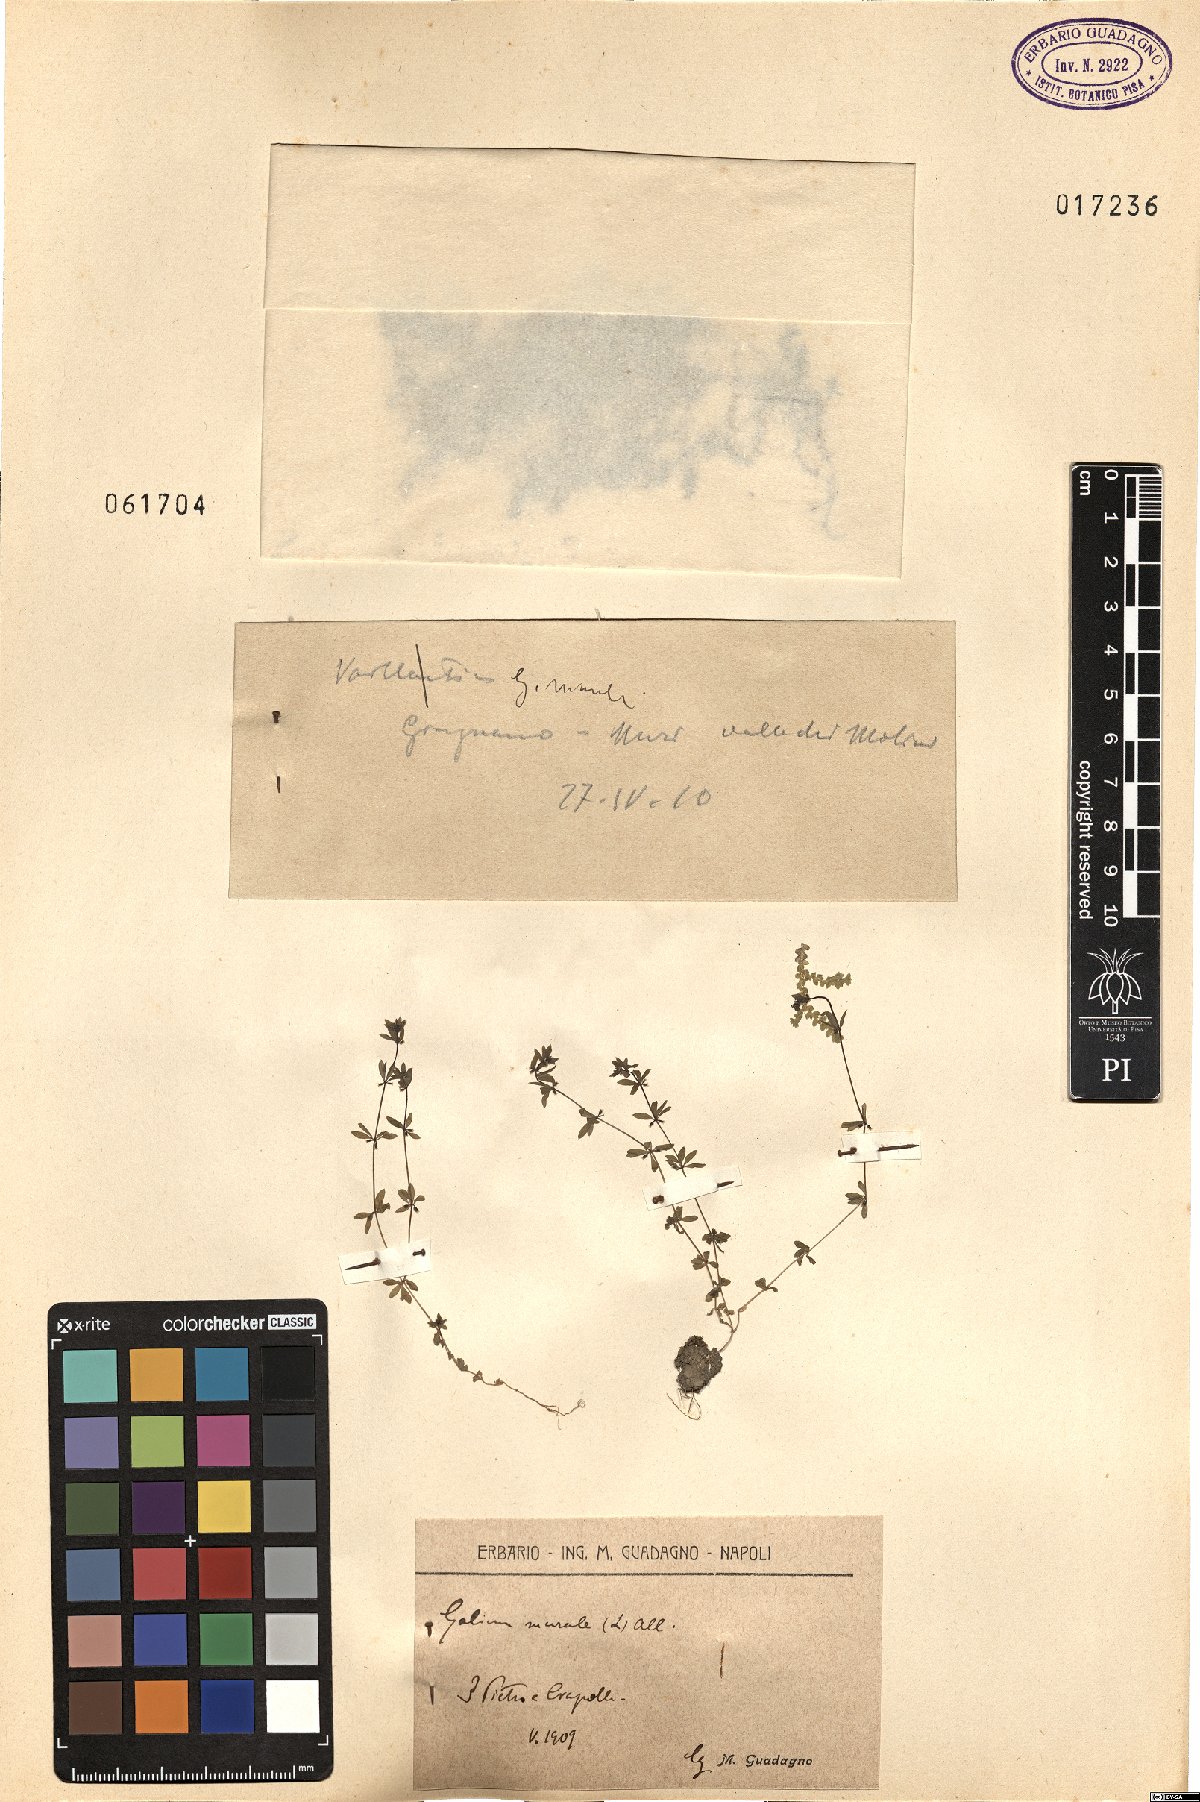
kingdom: Plantae
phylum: Tracheophyta
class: Magnoliopsida
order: Gentianales
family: Rubiaceae
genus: Galium
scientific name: Galium murale
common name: Yellow wall bedstraw
